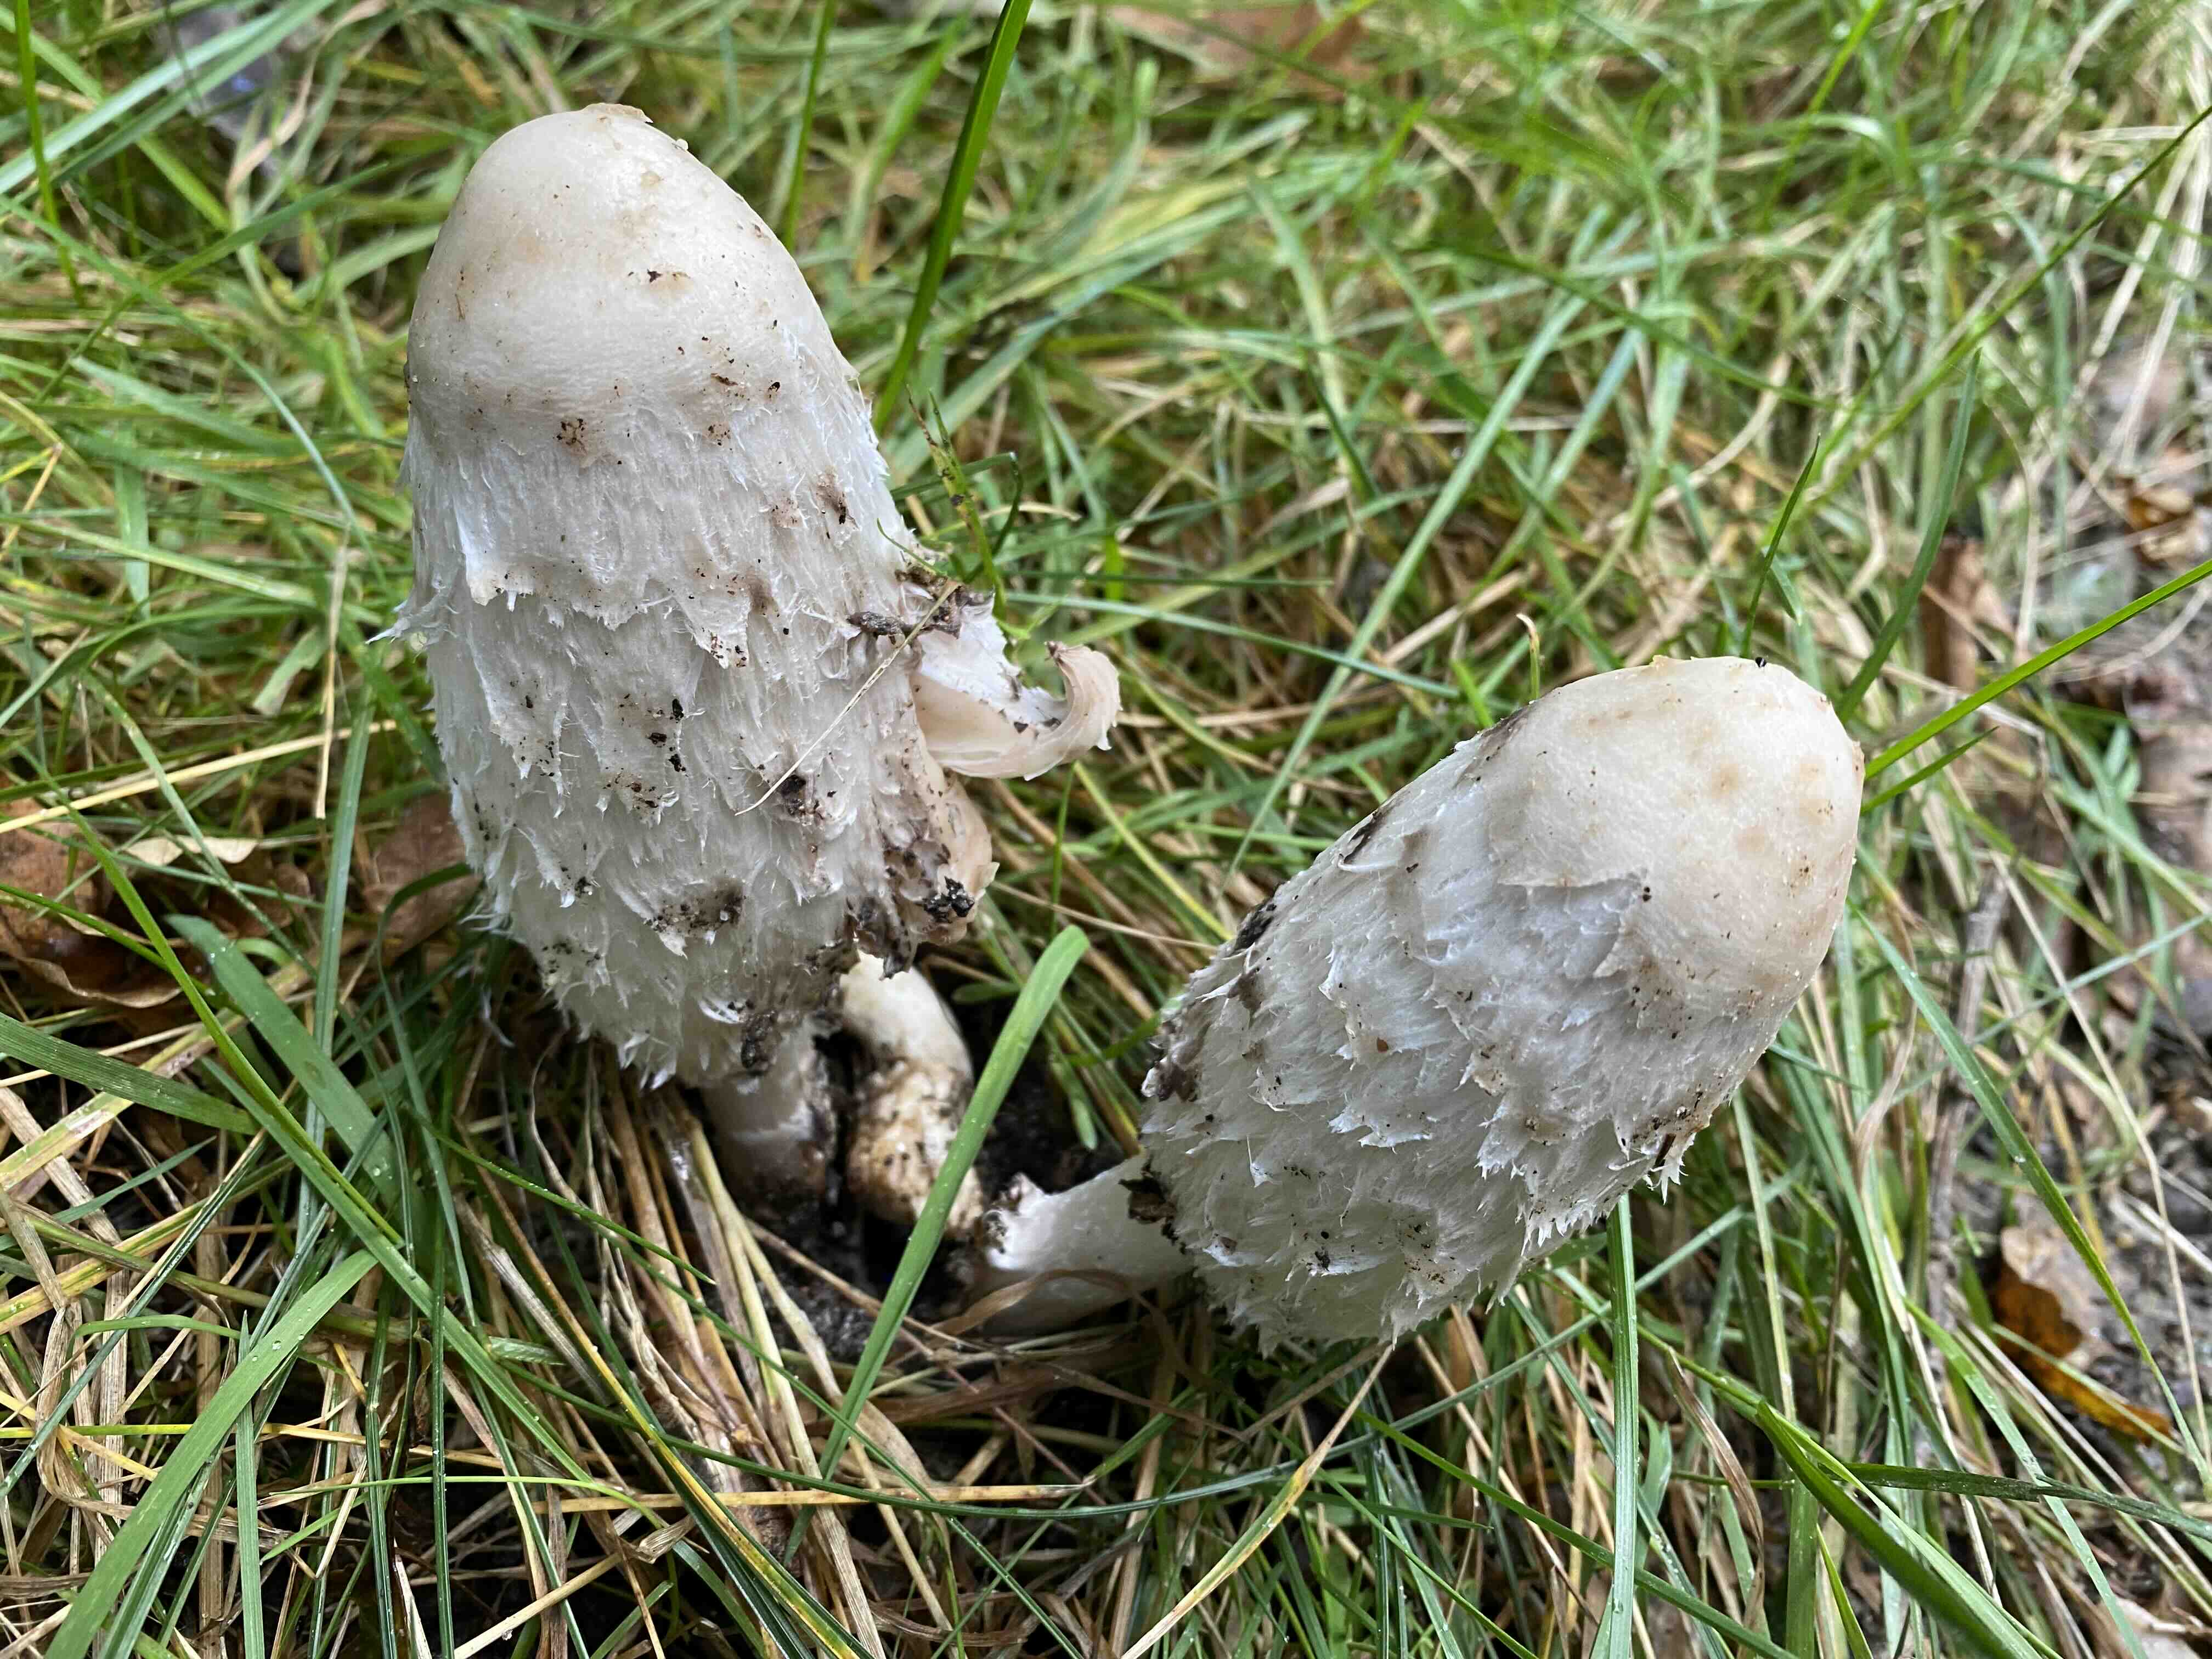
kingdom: Fungi
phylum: Basidiomycota
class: Agaricomycetes
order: Agaricales
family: Agaricaceae
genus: Coprinus
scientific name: Coprinus comatus
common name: stor parykhat
